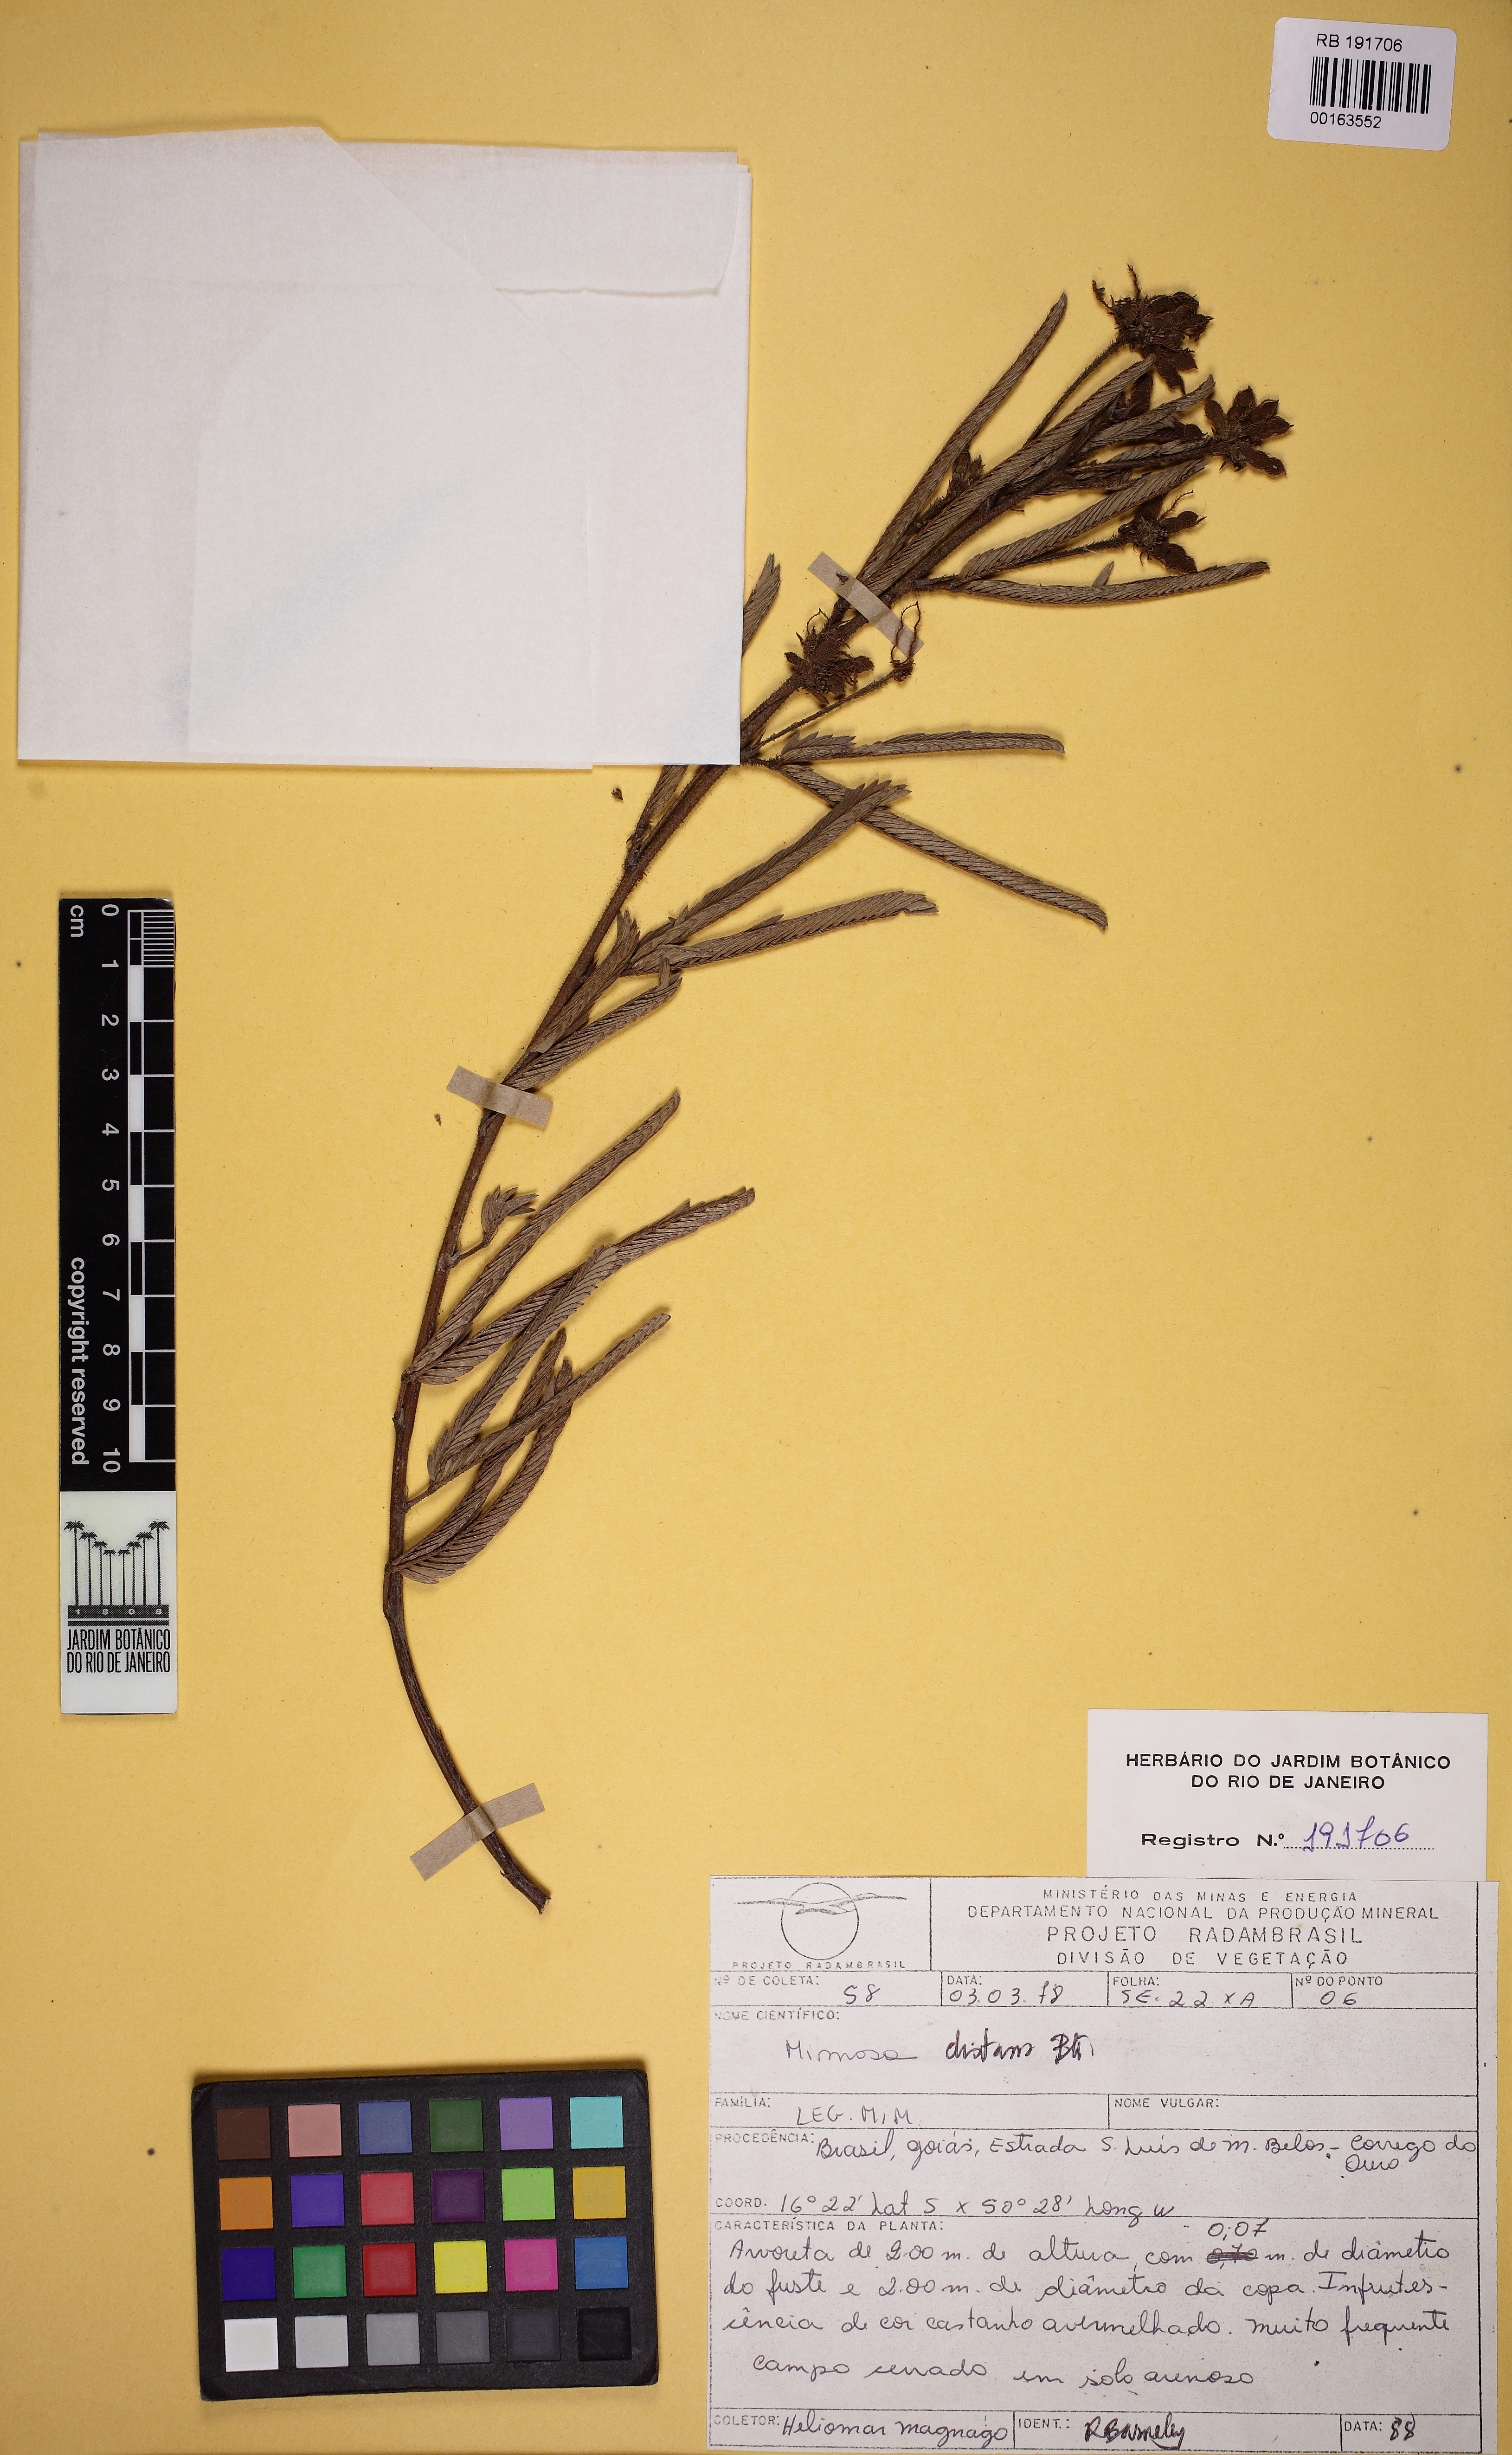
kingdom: Plantae
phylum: Tracheophyta
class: Magnoliopsida
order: Fabales
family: Fabaceae
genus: Mimosa
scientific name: Mimosa distans
